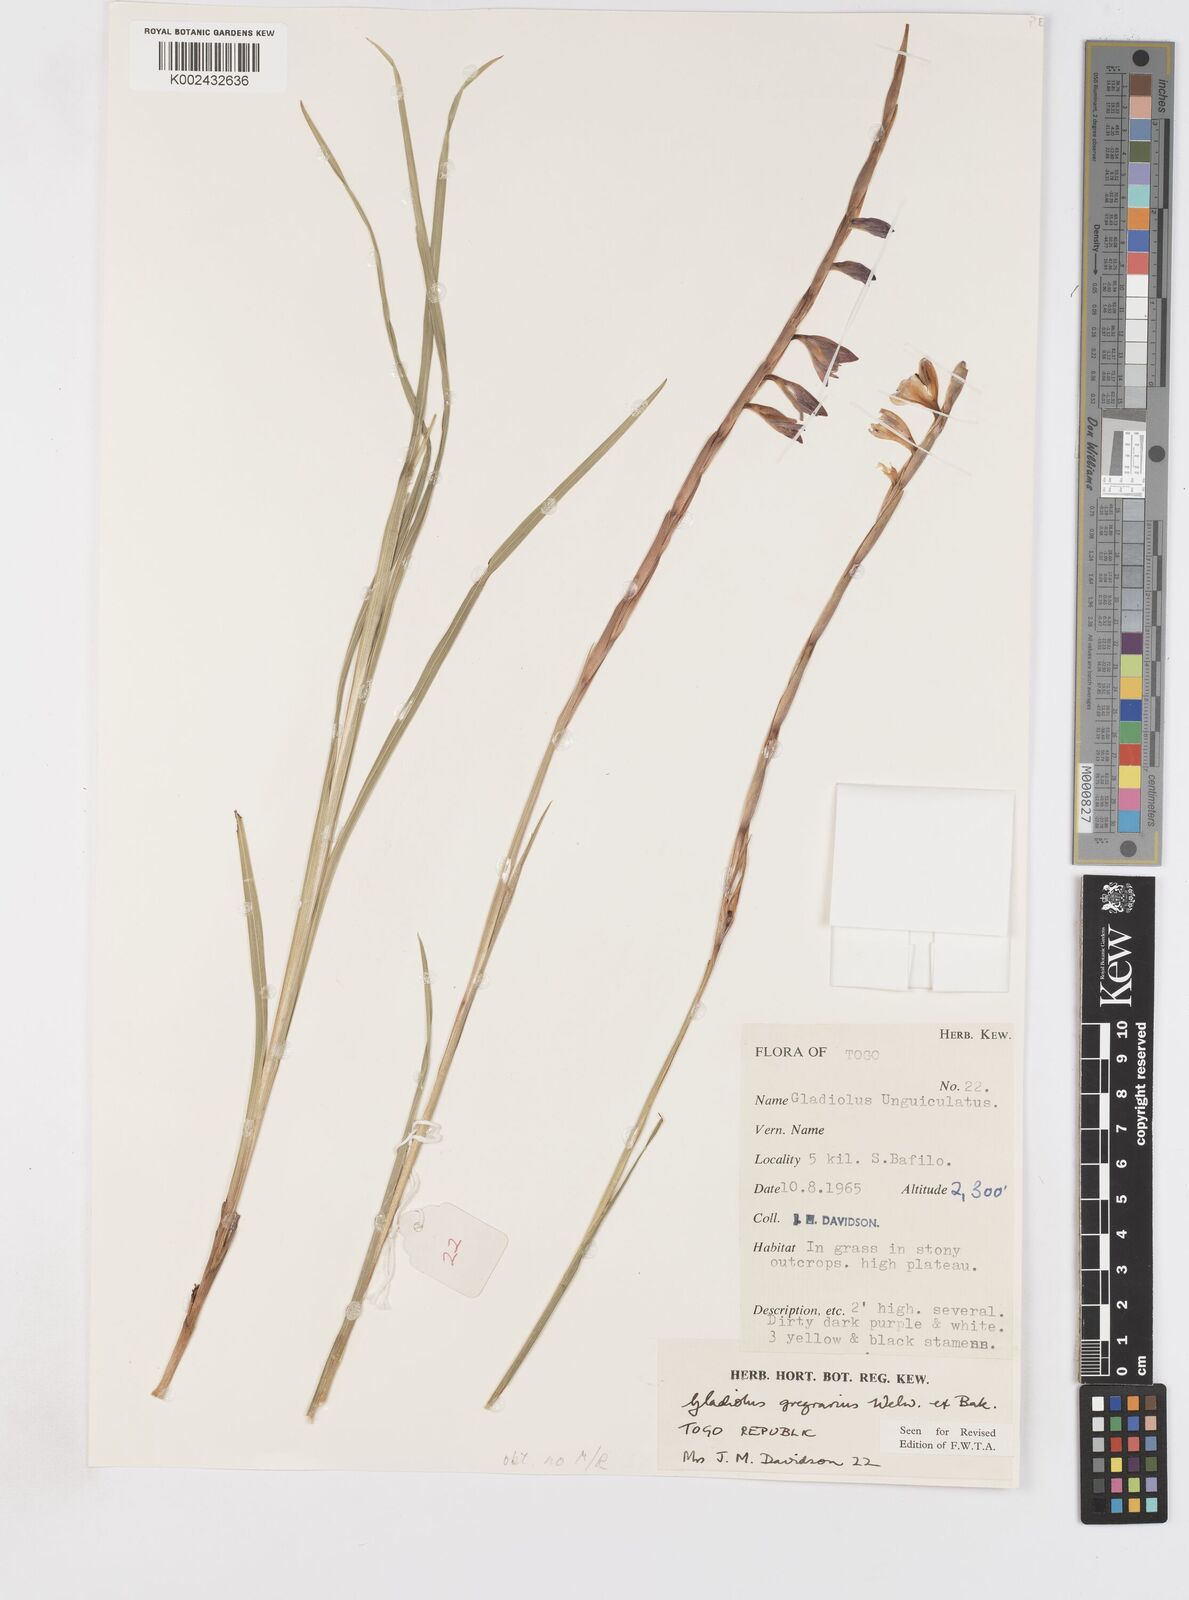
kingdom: Plantae
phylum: Tracheophyta
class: Liliopsida
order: Asparagales
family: Iridaceae
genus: Gladiolus
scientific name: Gladiolus gregarius
